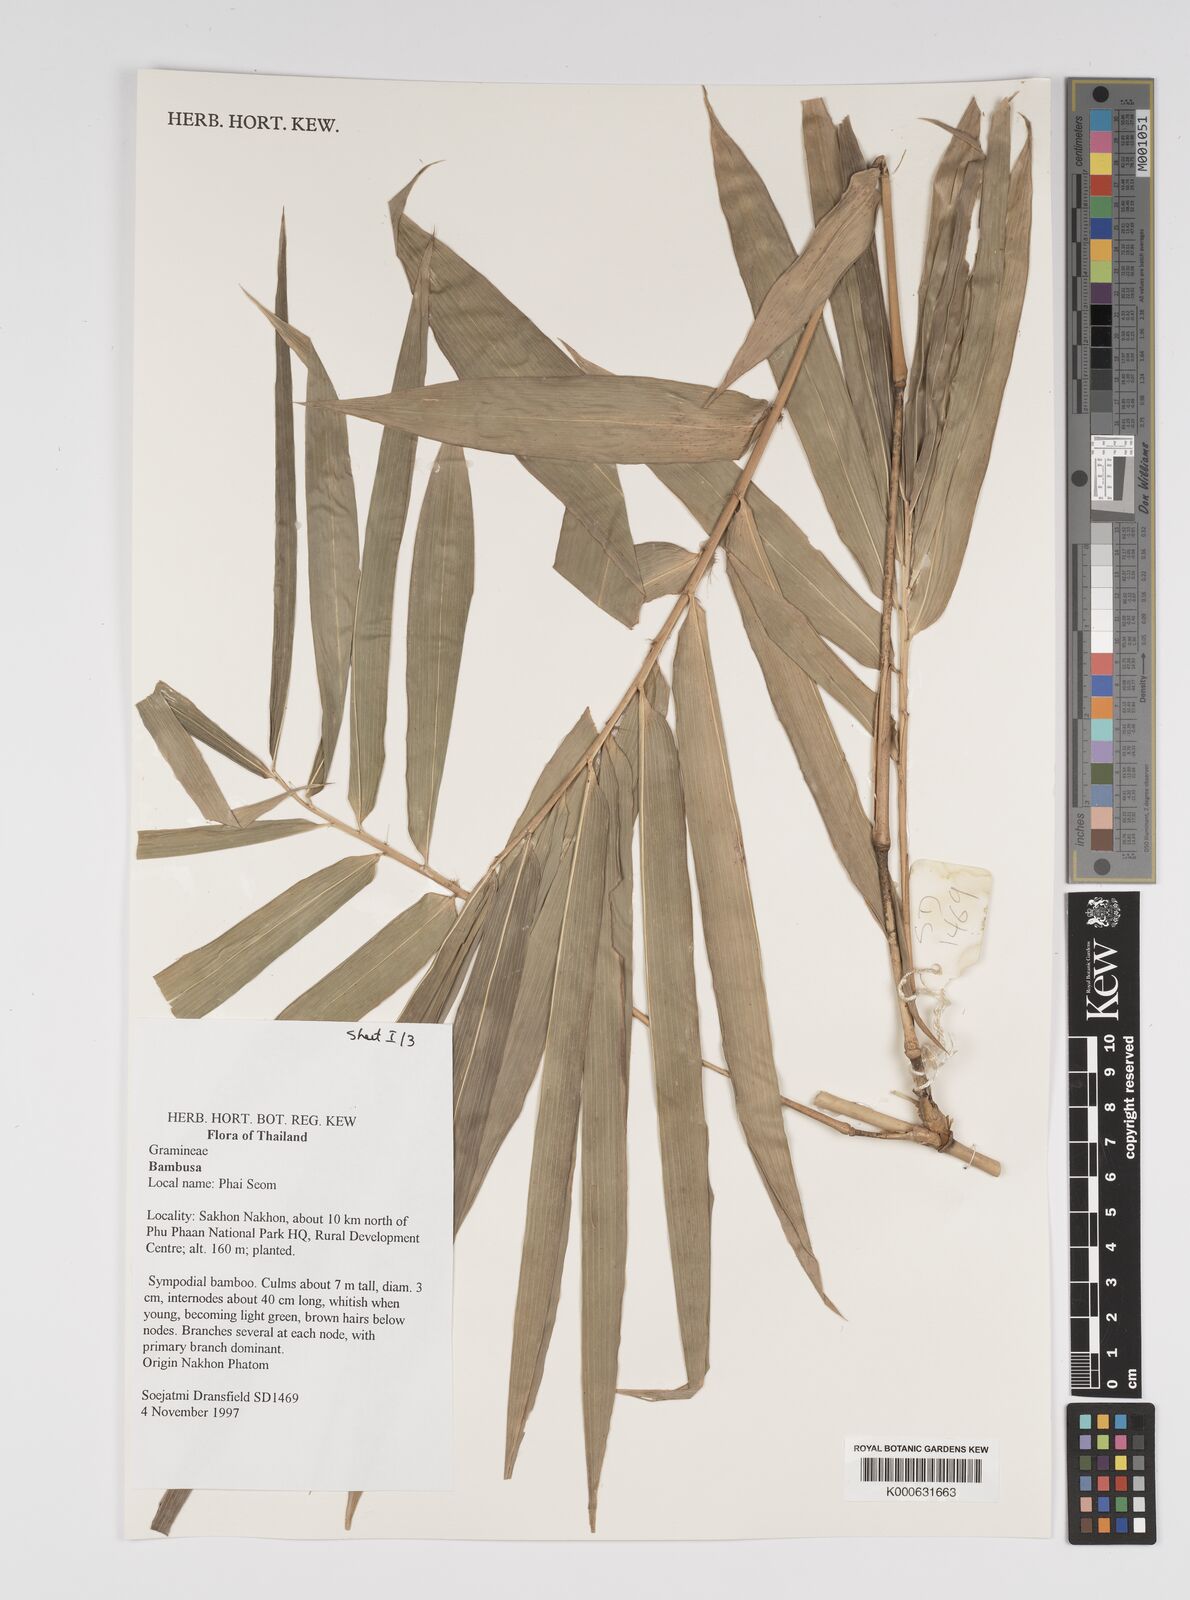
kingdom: Plantae
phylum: Tracheophyta
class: Liliopsida
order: Poales
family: Poaceae
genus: Bambusa
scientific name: Bambusa
